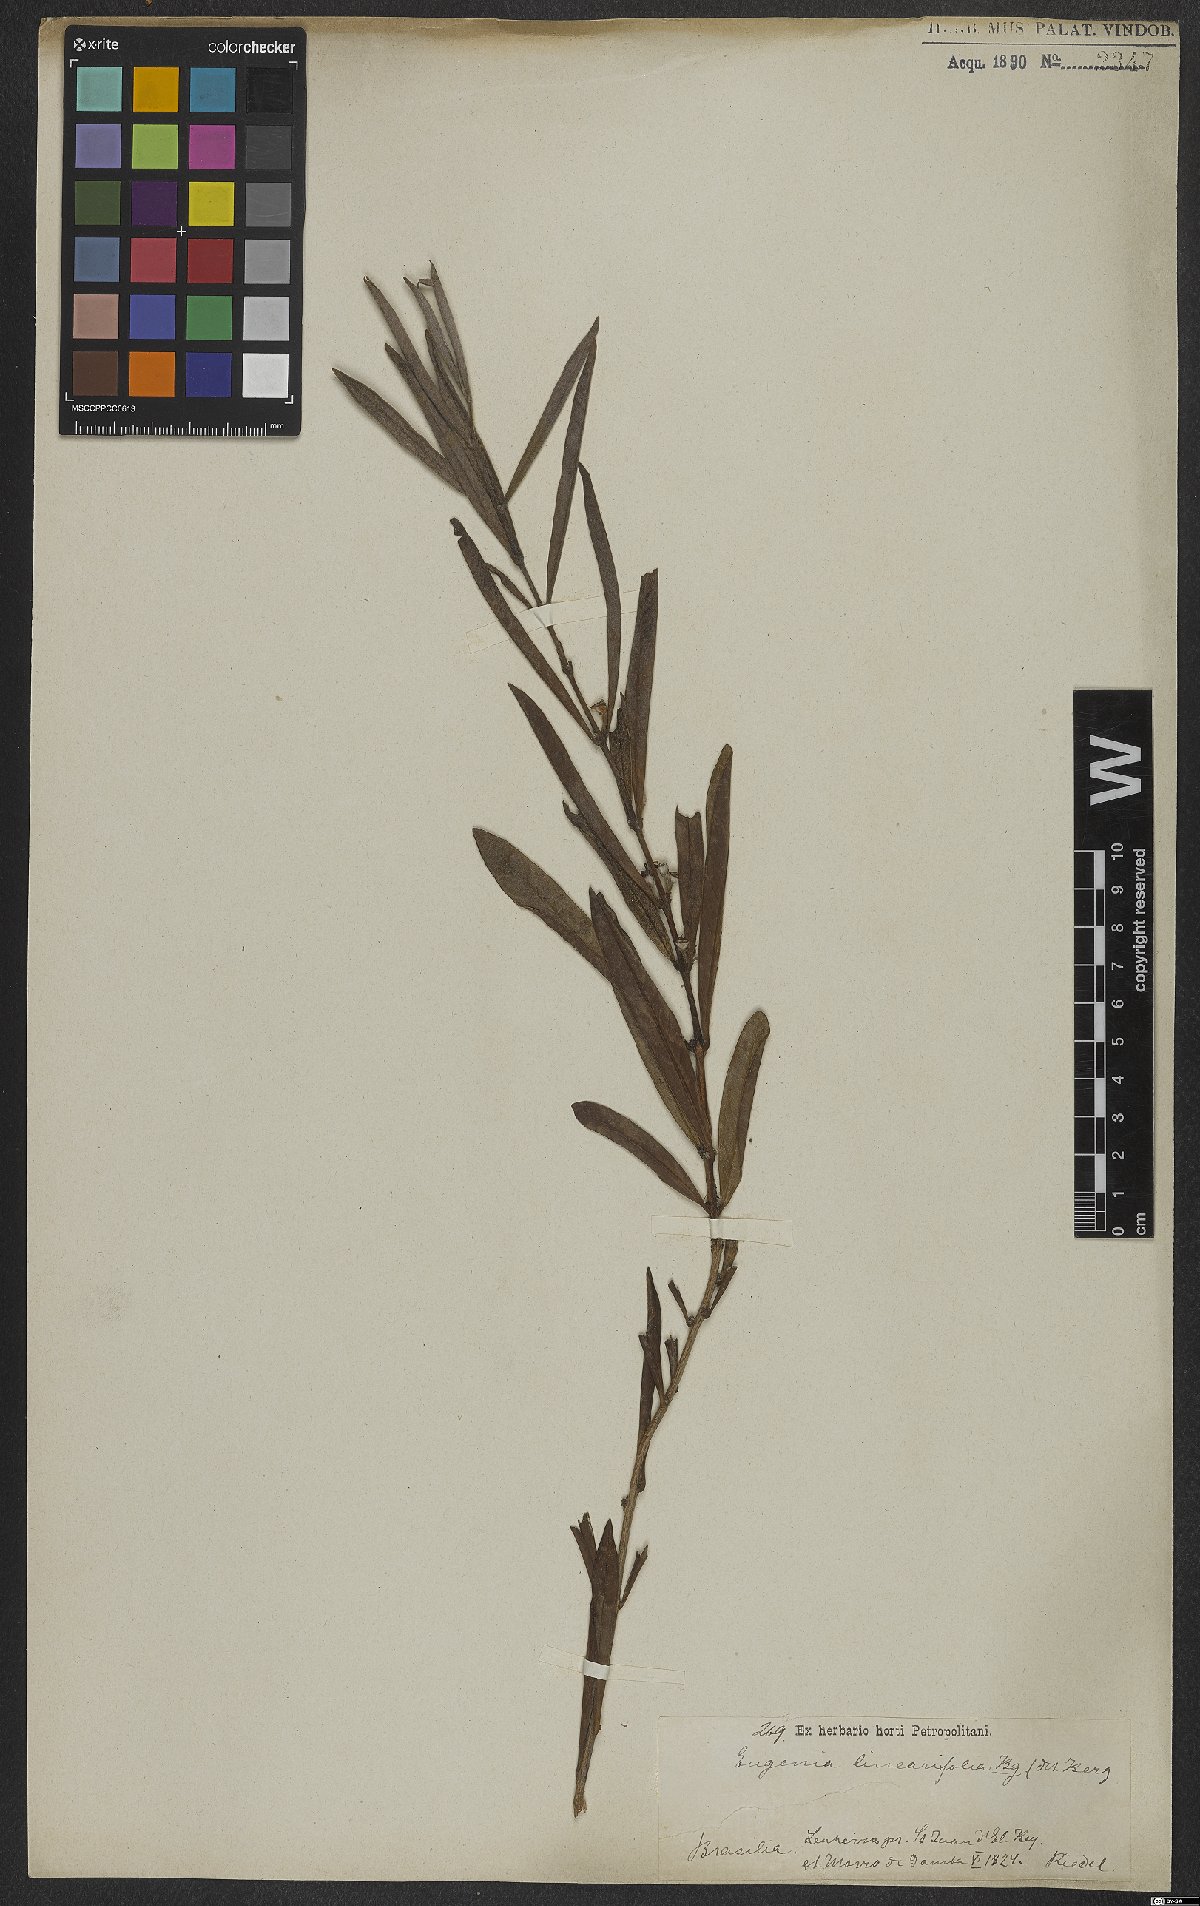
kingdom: Plantae
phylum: Tracheophyta
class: Magnoliopsida
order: Myrtales
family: Myrtaceae
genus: Eugenia
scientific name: Eugenia punicifolia
